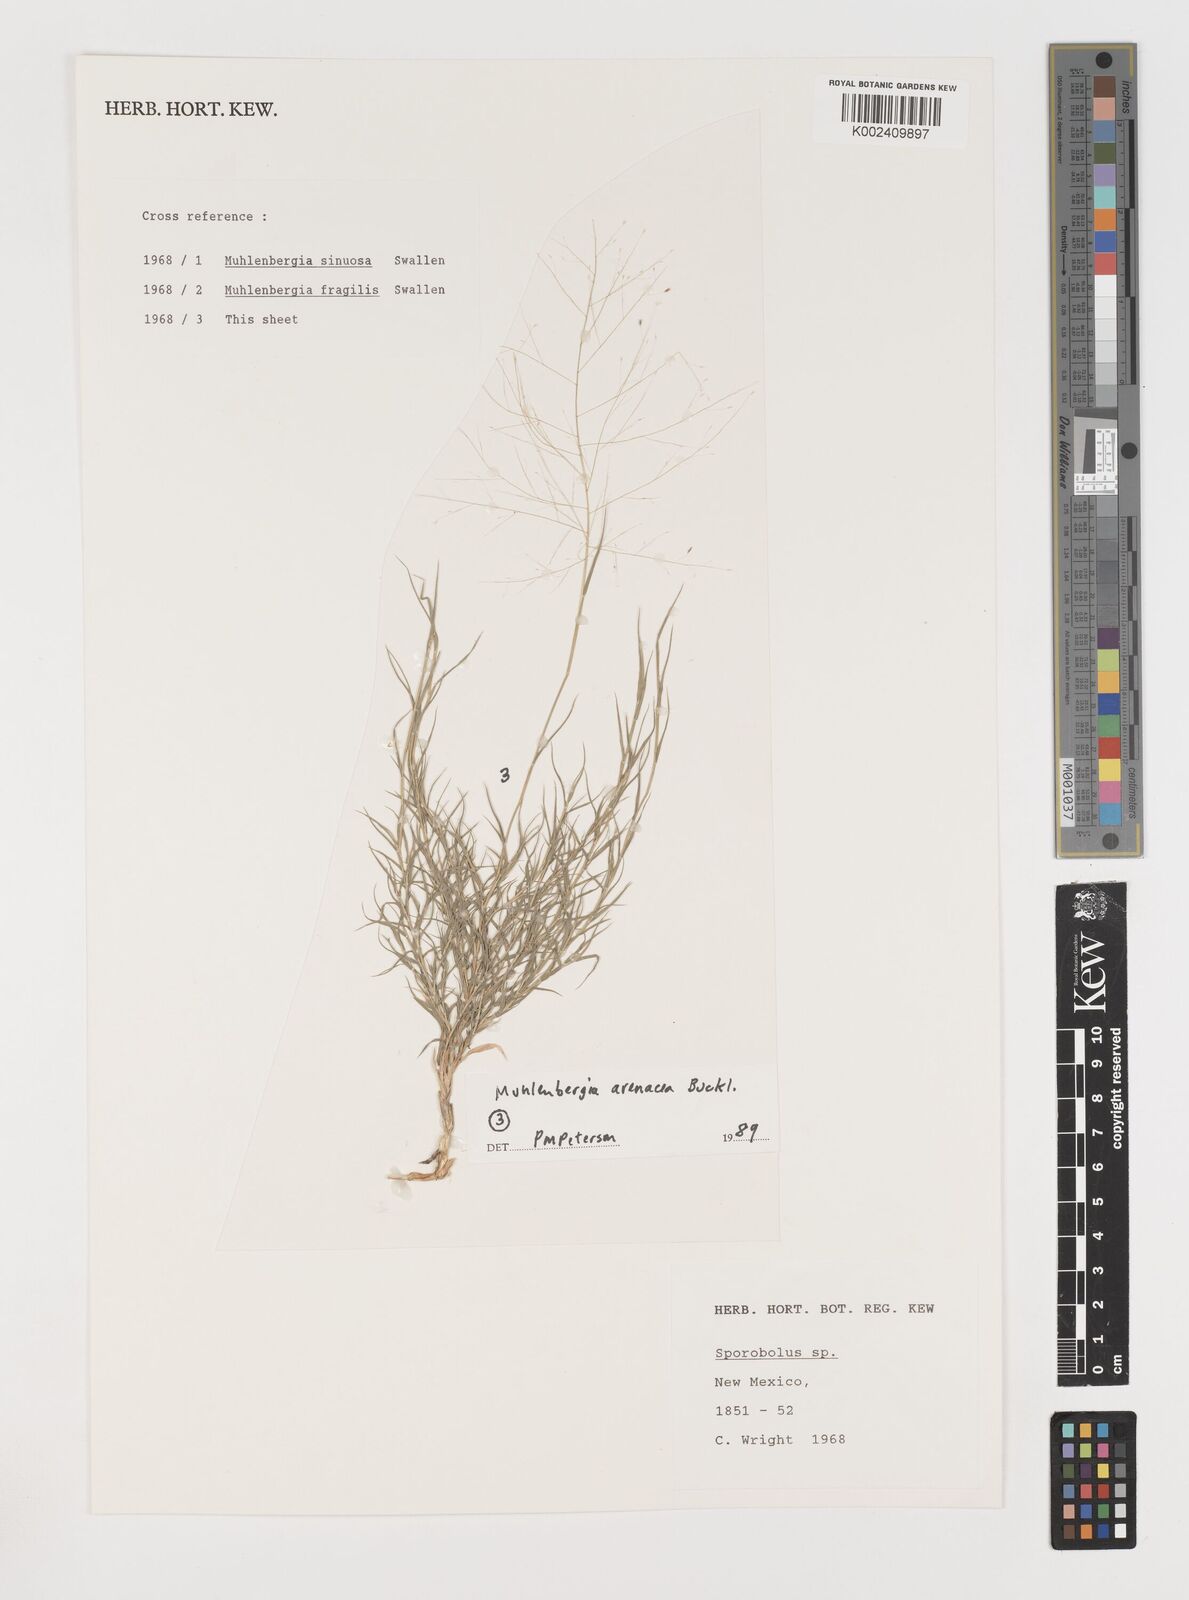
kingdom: Plantae
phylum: Tracheophyta
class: Liliopsida
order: Poales
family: Poaceae
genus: Muhlenbergia
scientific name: Muhlenbergia arenacea
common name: Ear muhly
